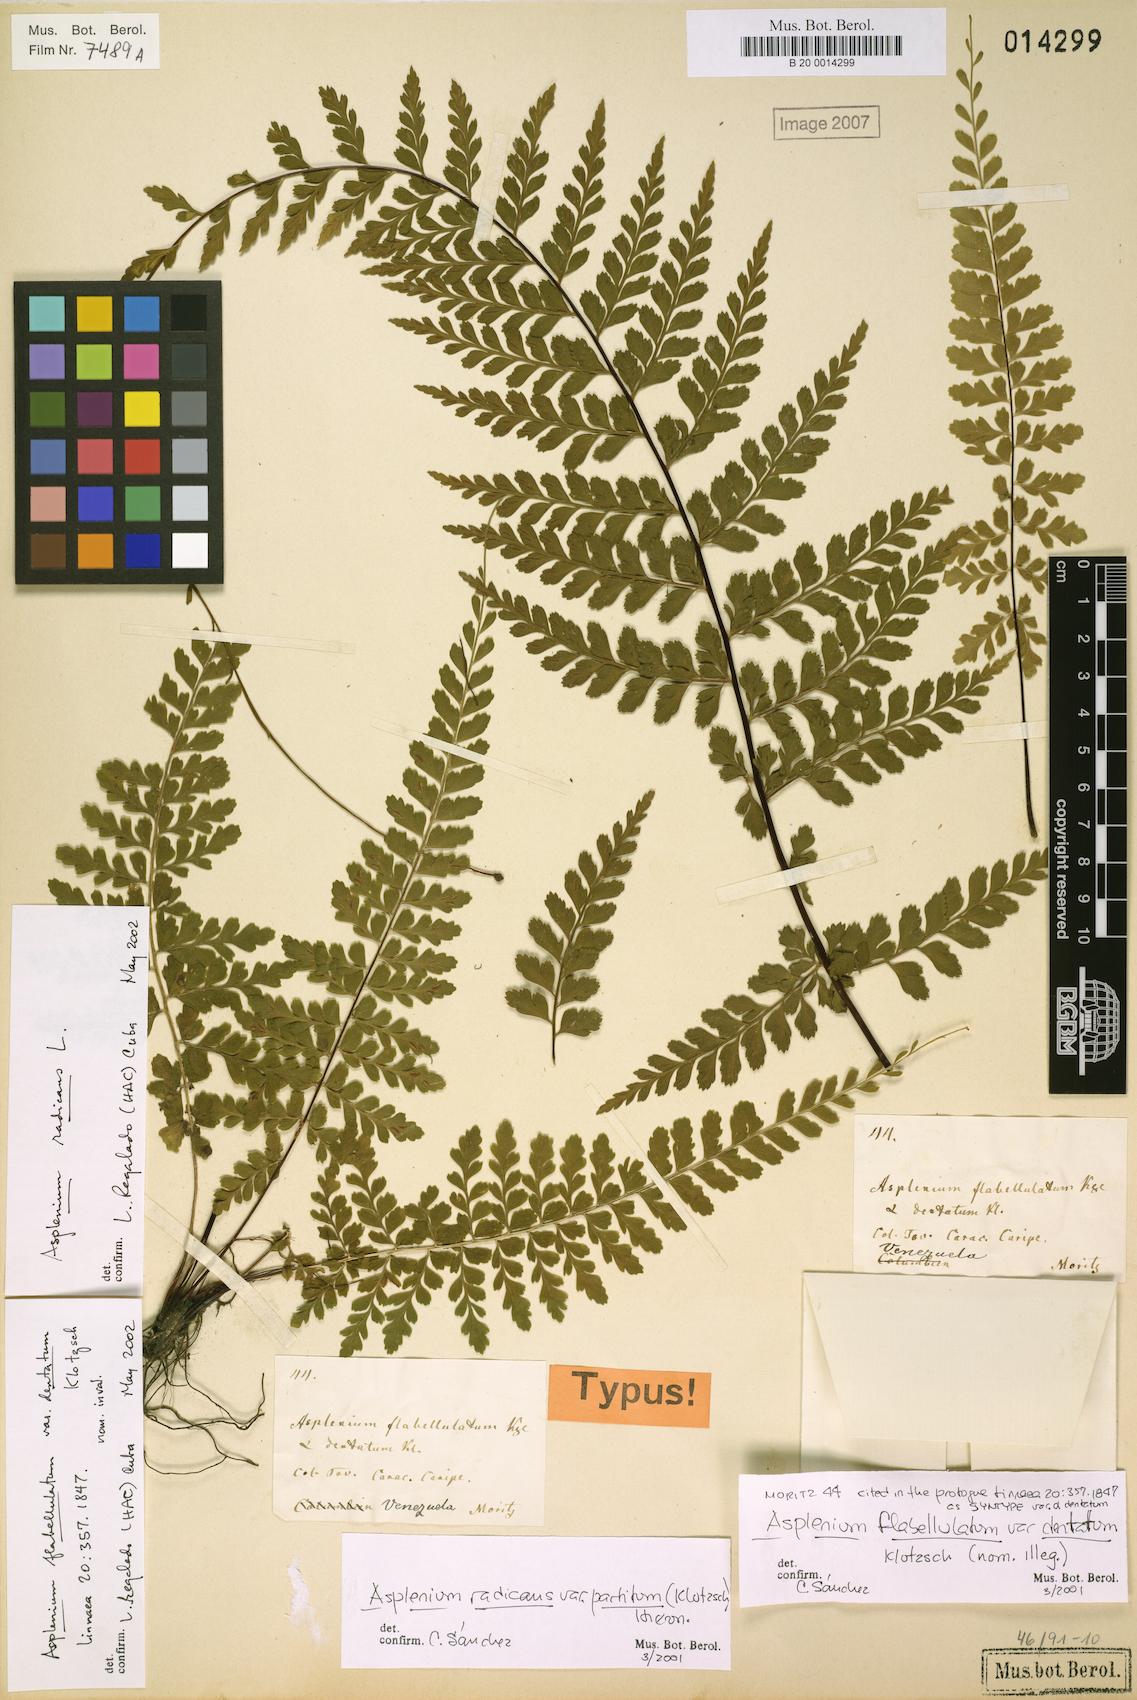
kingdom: Plantae
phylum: Tracheophyta
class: Polypodiopsida
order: Polypodiales
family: Aspleniaceae
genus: Asplenium
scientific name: Asplenium radicans
